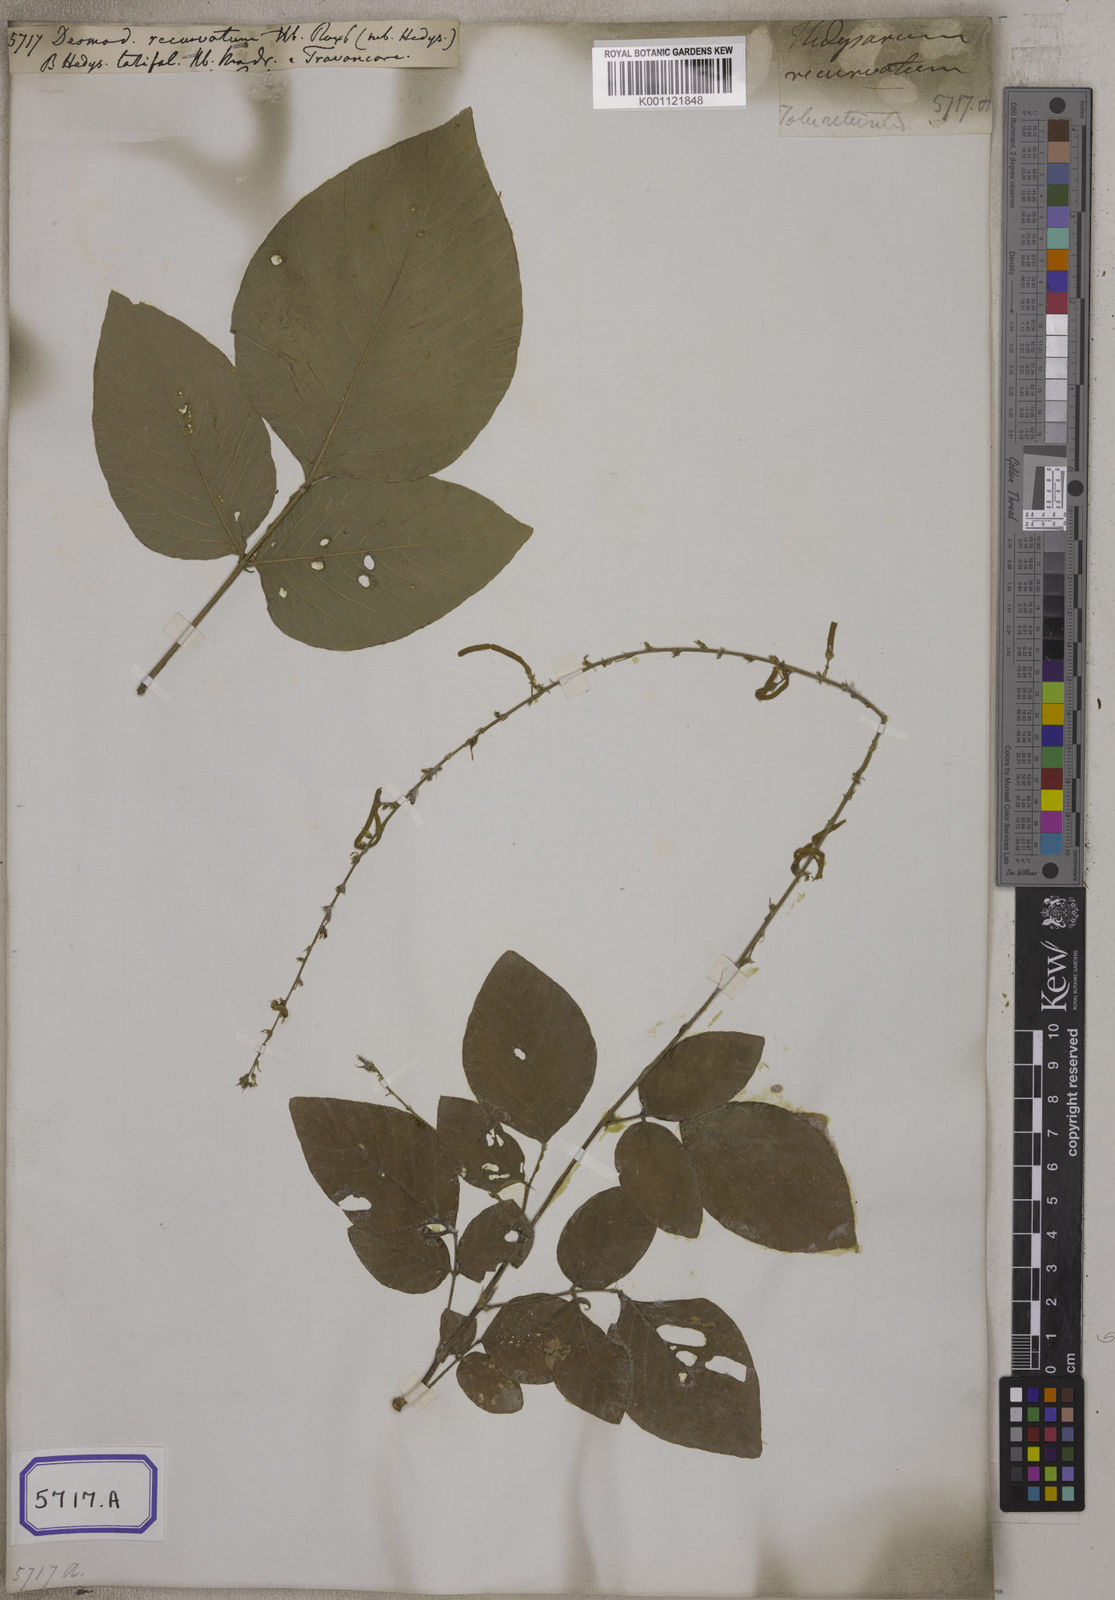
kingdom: Plantae
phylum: Tracheophyta
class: Magnoliopsida
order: Fabales
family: Fabaceae
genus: Sohmaea
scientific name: Sohmaea laxiflora
